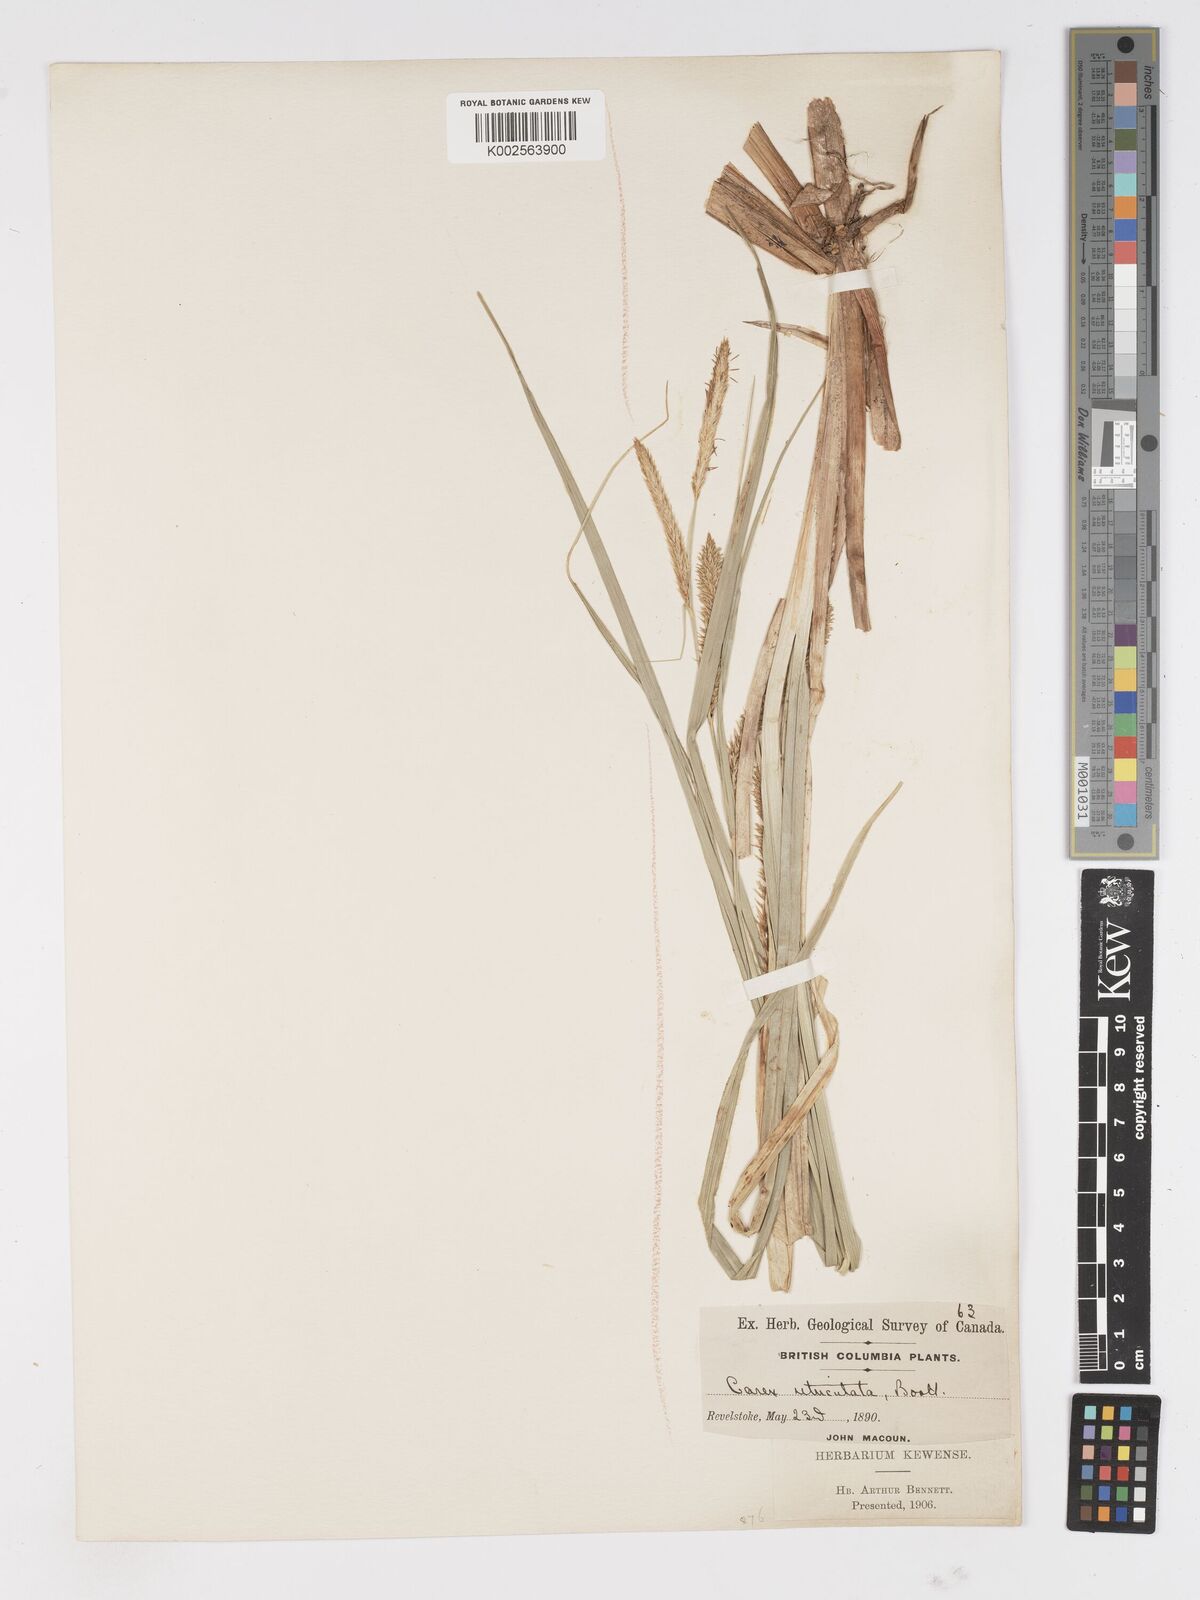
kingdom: Plantae
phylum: Tracheophyta
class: Liliopsida
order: Poales
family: Cyperaceae
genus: Carex
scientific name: Carex rostrata
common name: Bottle sedge
